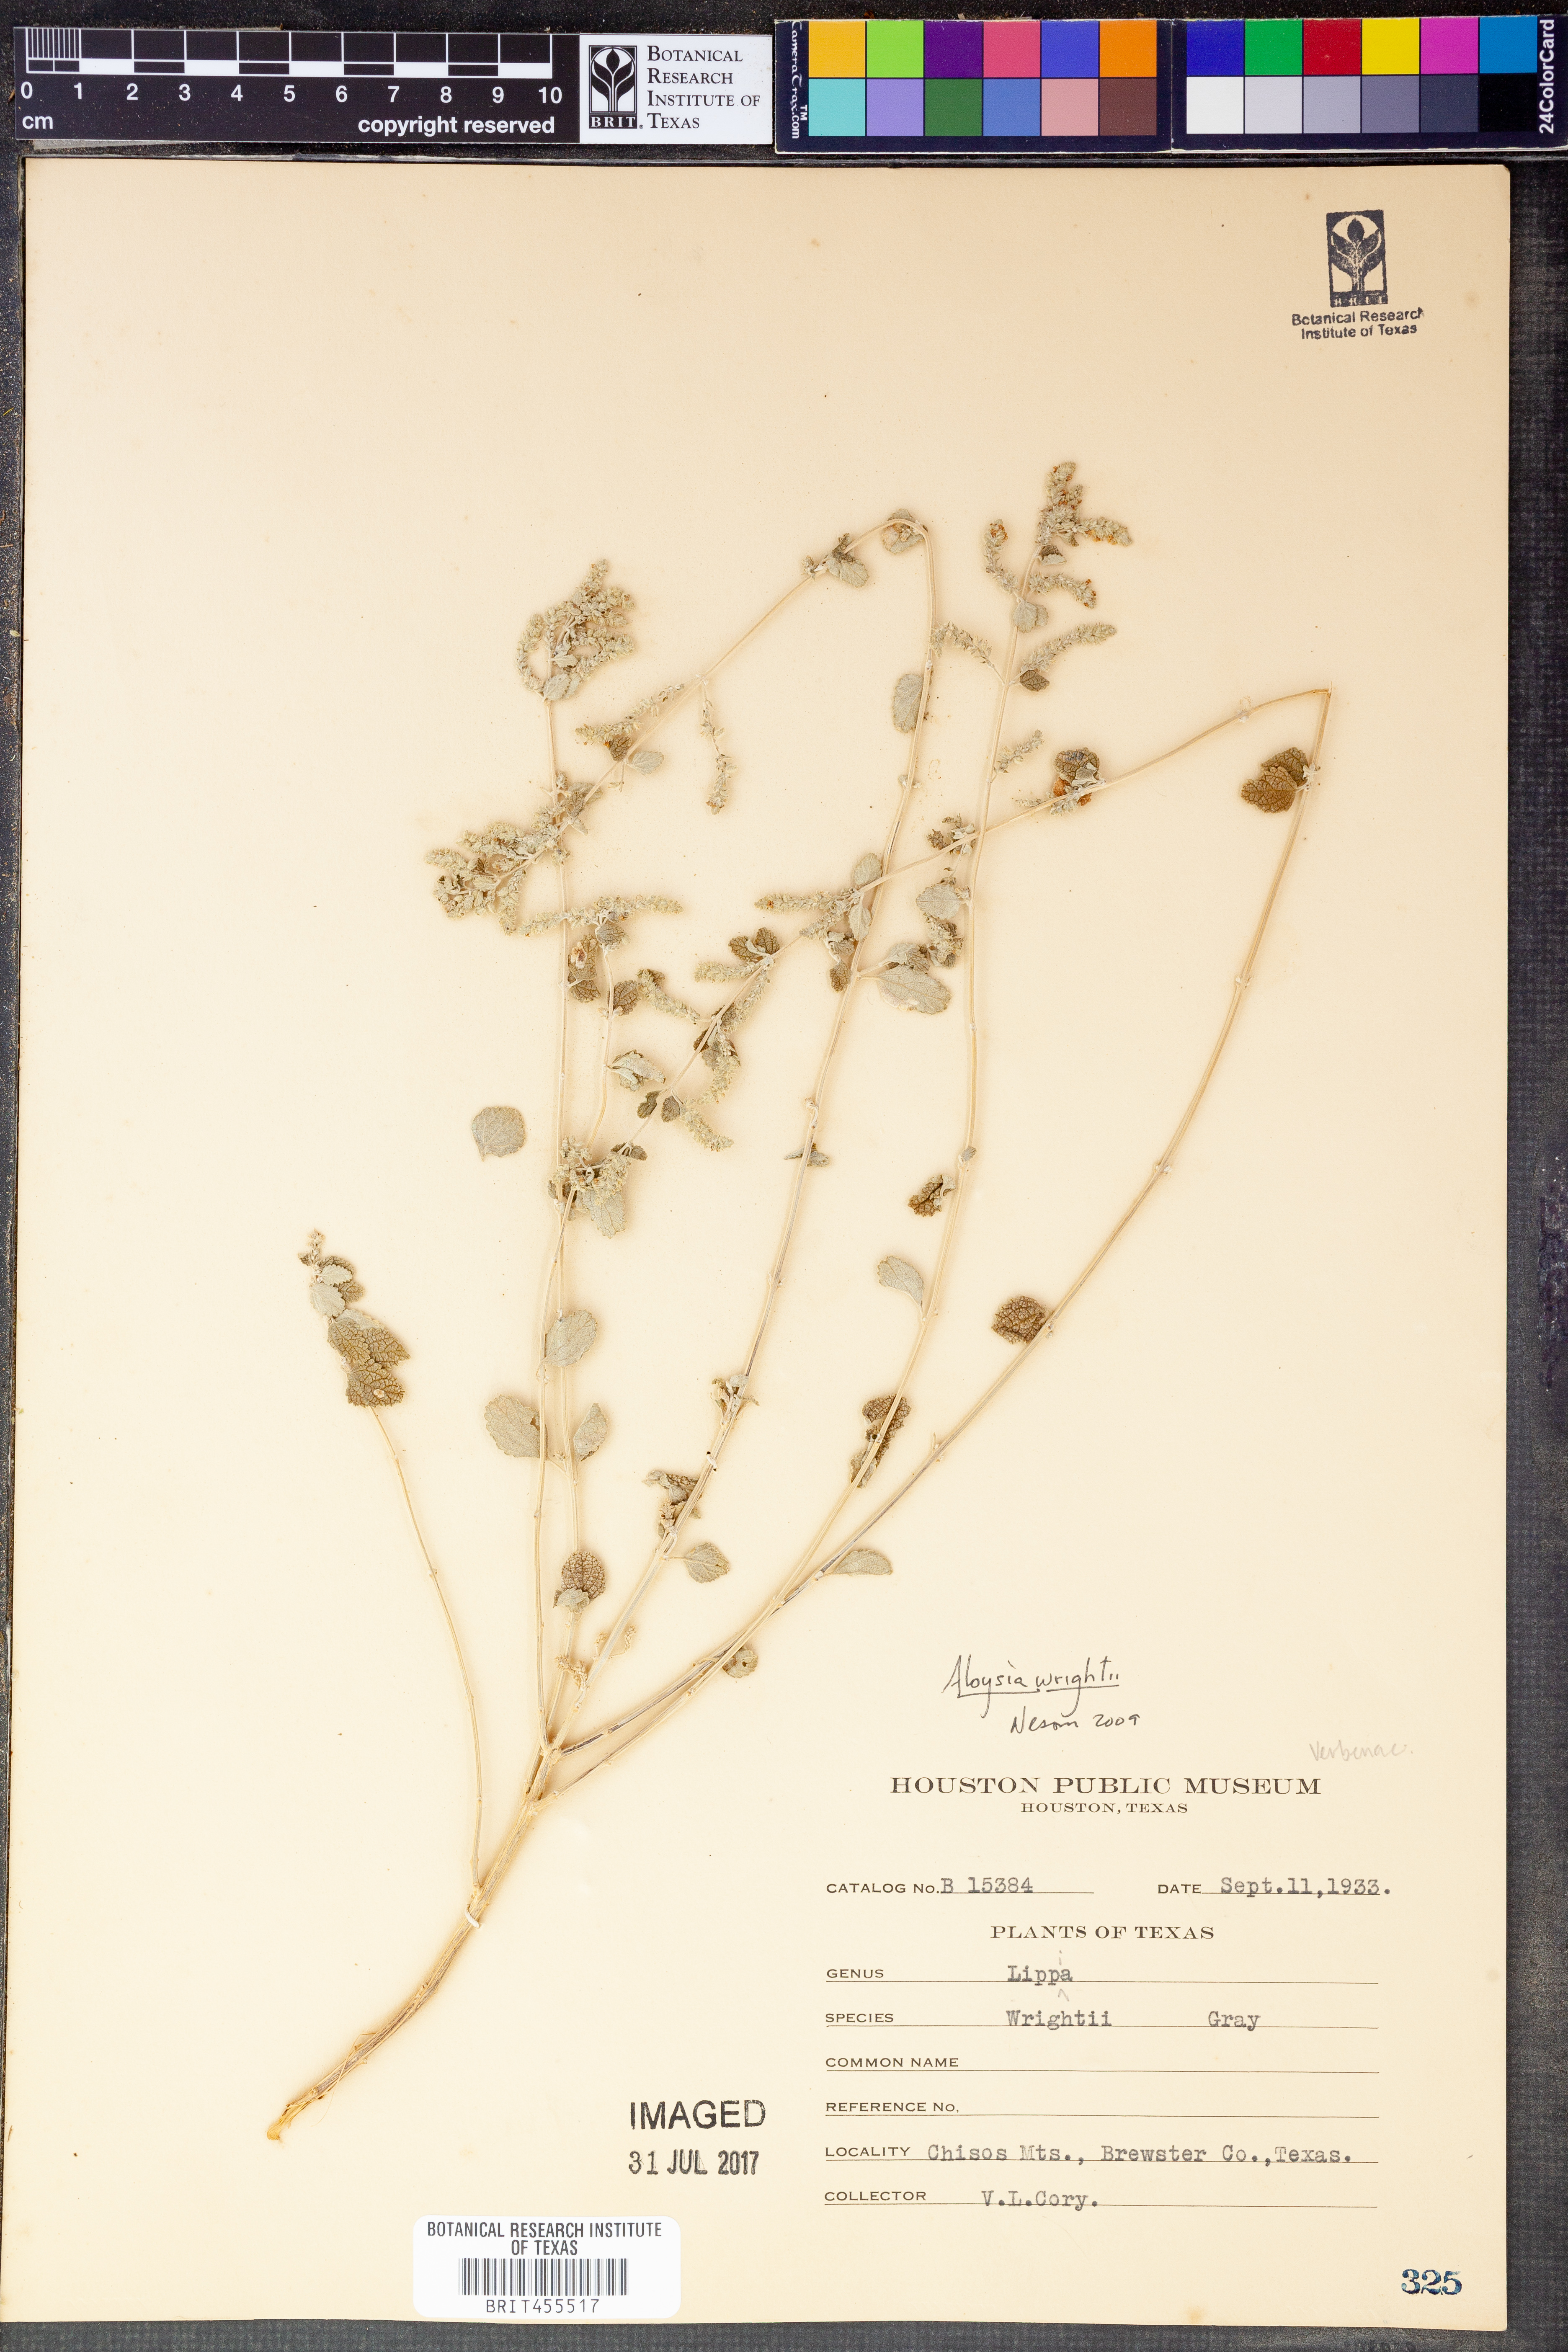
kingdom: Plantae
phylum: Tracheophyta
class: Magnoliopsida
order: Lamiales
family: Verbenaceae
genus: Aloysia
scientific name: Aloysia wrightii
